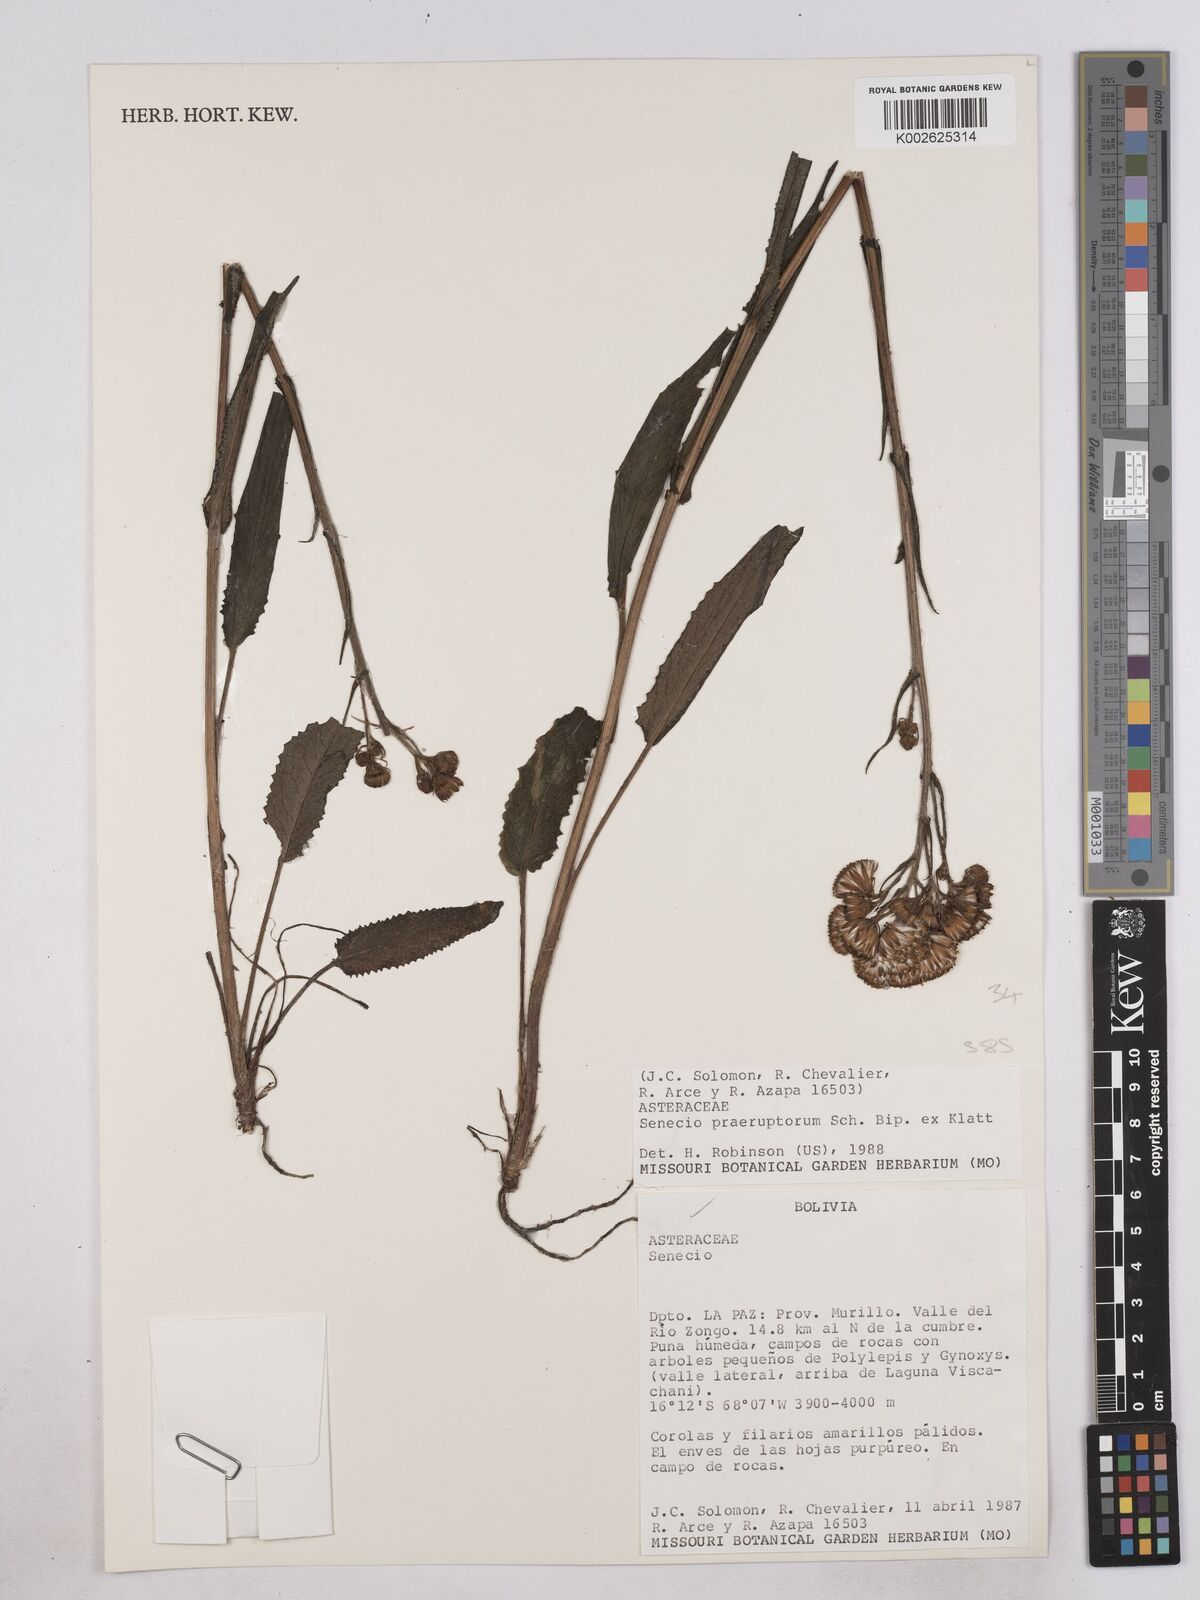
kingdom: Plantae
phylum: Tracheophyta
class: Magnoliopsida
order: Asterales
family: Asteraceae
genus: Senecio
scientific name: Senecio praeruptorum
